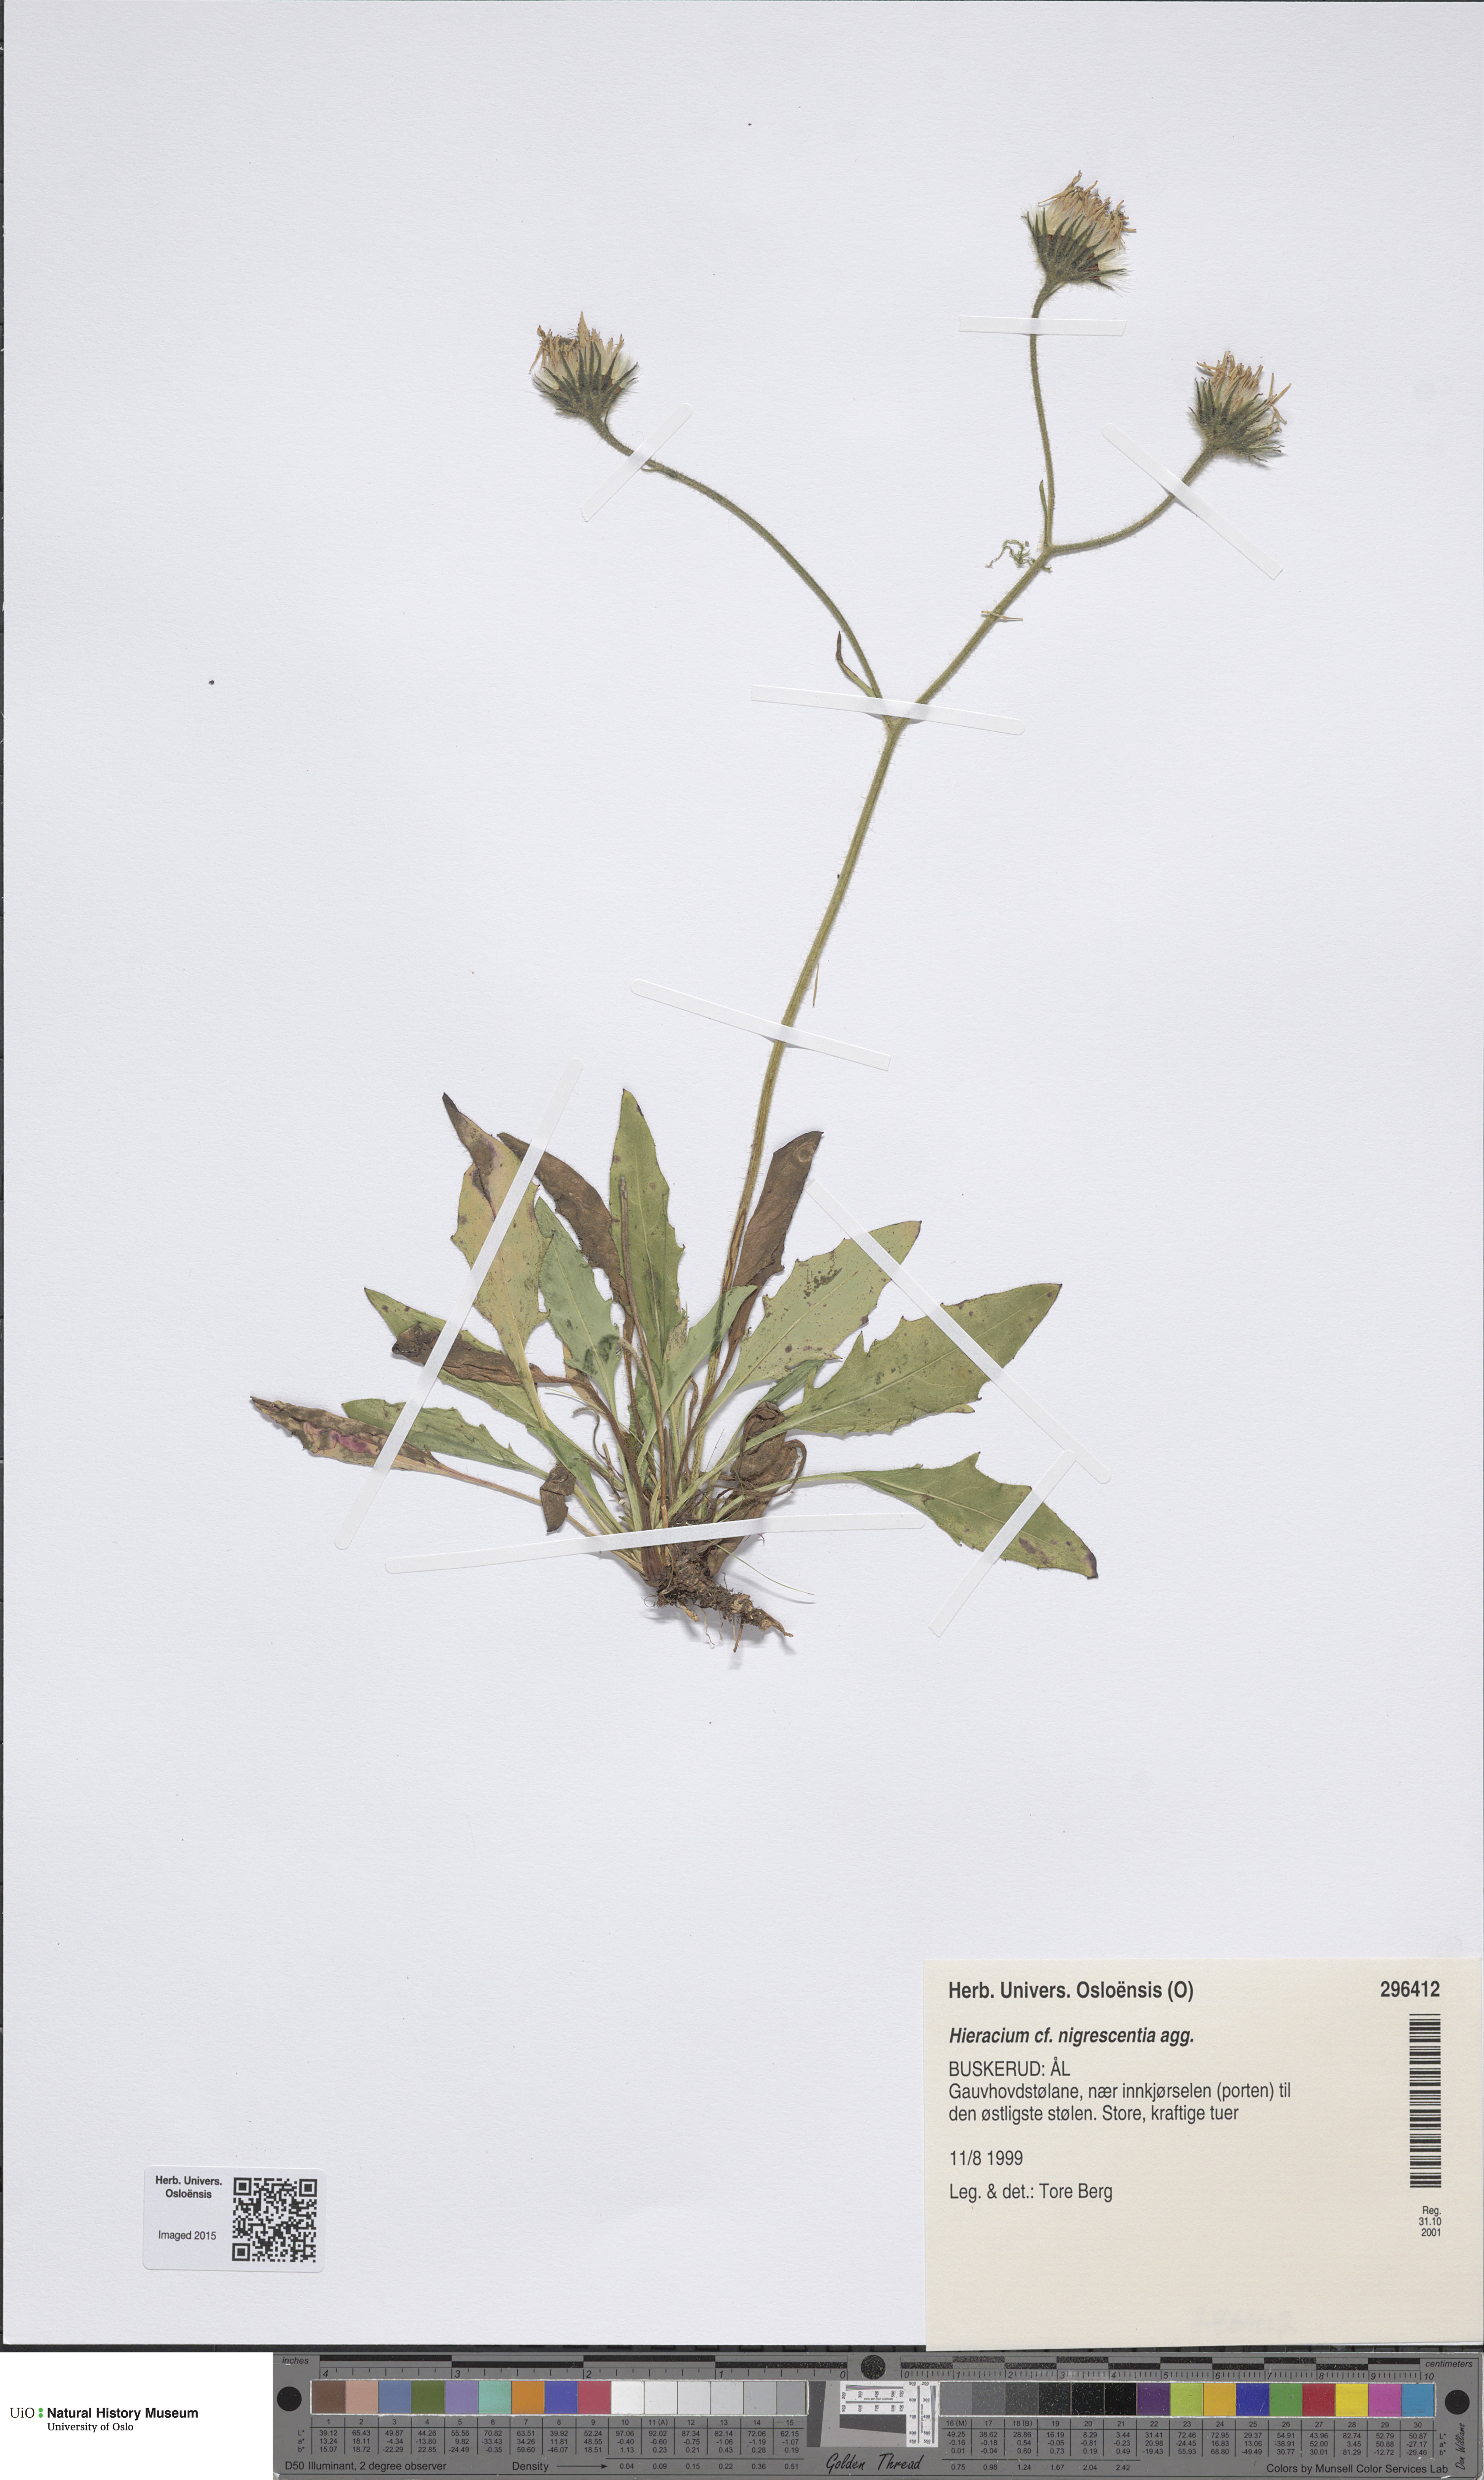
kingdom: Plantae
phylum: Tracheophyta
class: Magnoliopsida
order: Asterales
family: Asteraceae
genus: Hieracium
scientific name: Hieracium umbrosum
